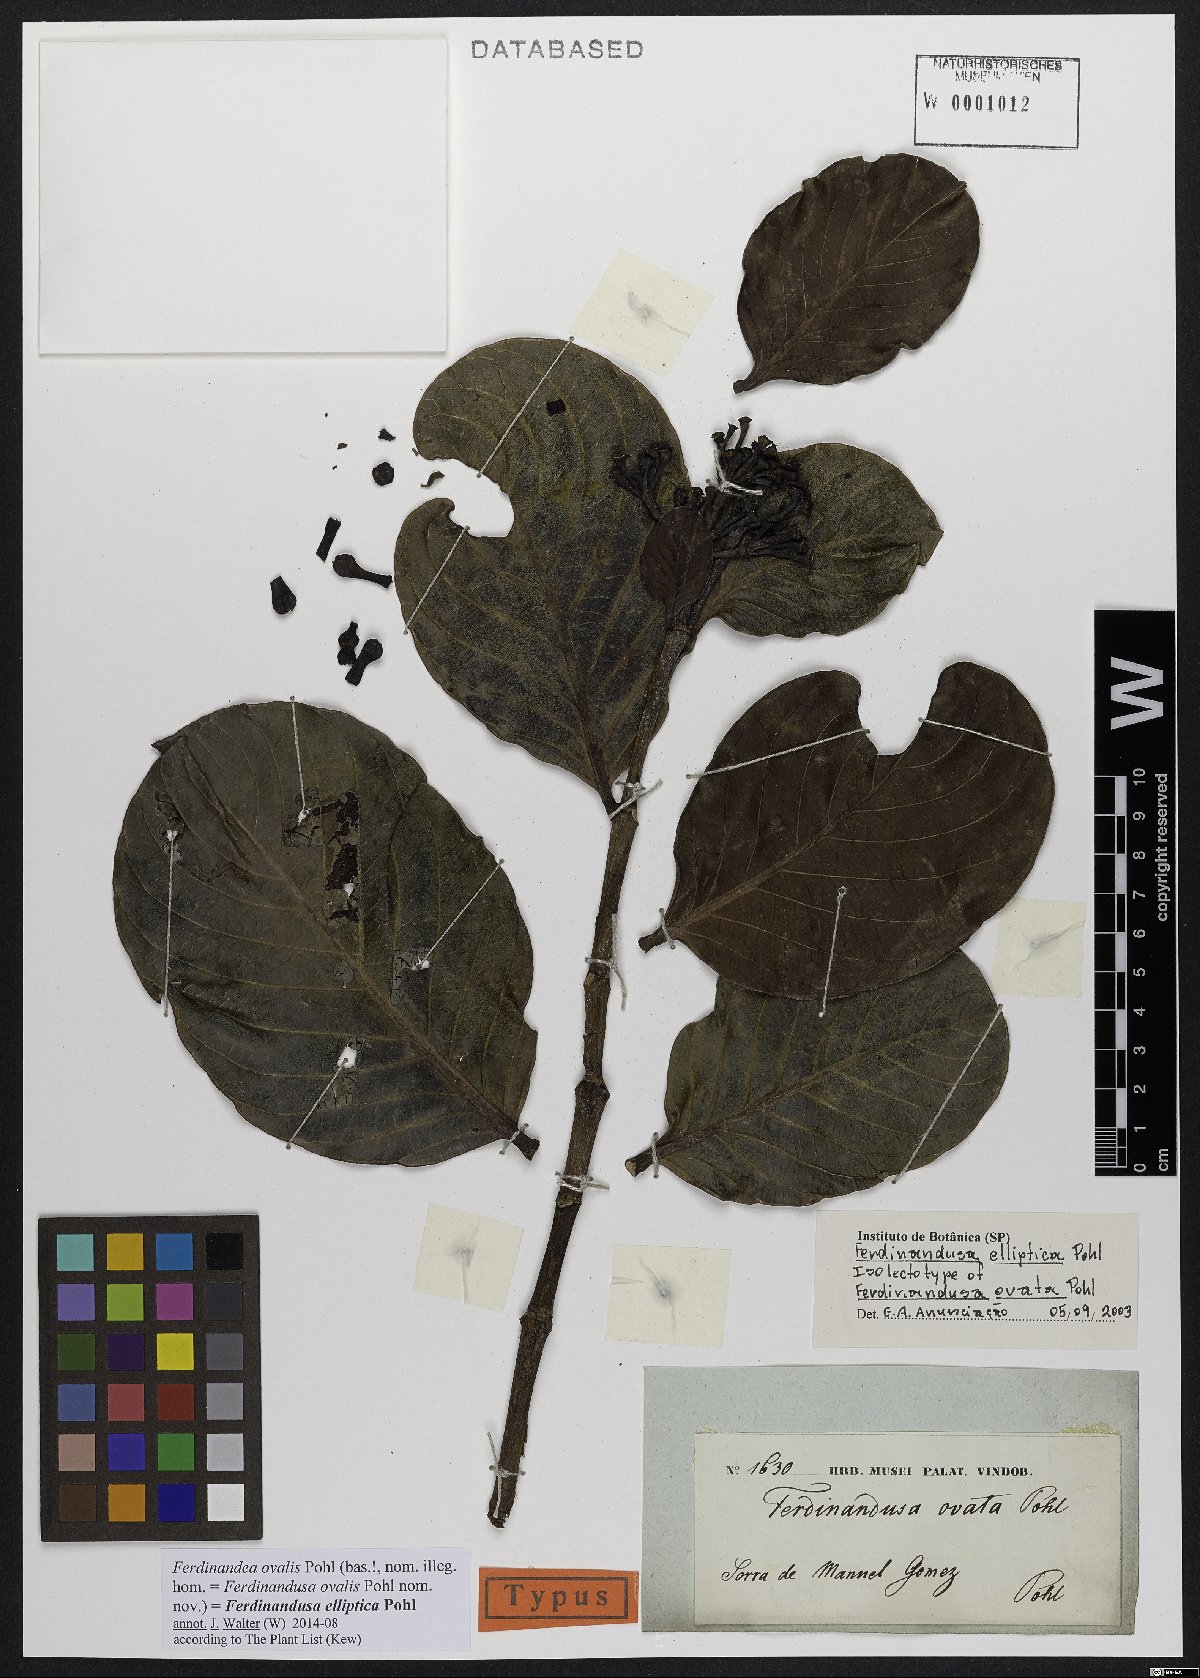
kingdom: Plantae
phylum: Tracheophyta
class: Magnoliopsida
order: Gentianales
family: Rubiaceae
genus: Ferdinandusa
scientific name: Ferdinandusa elliptica
